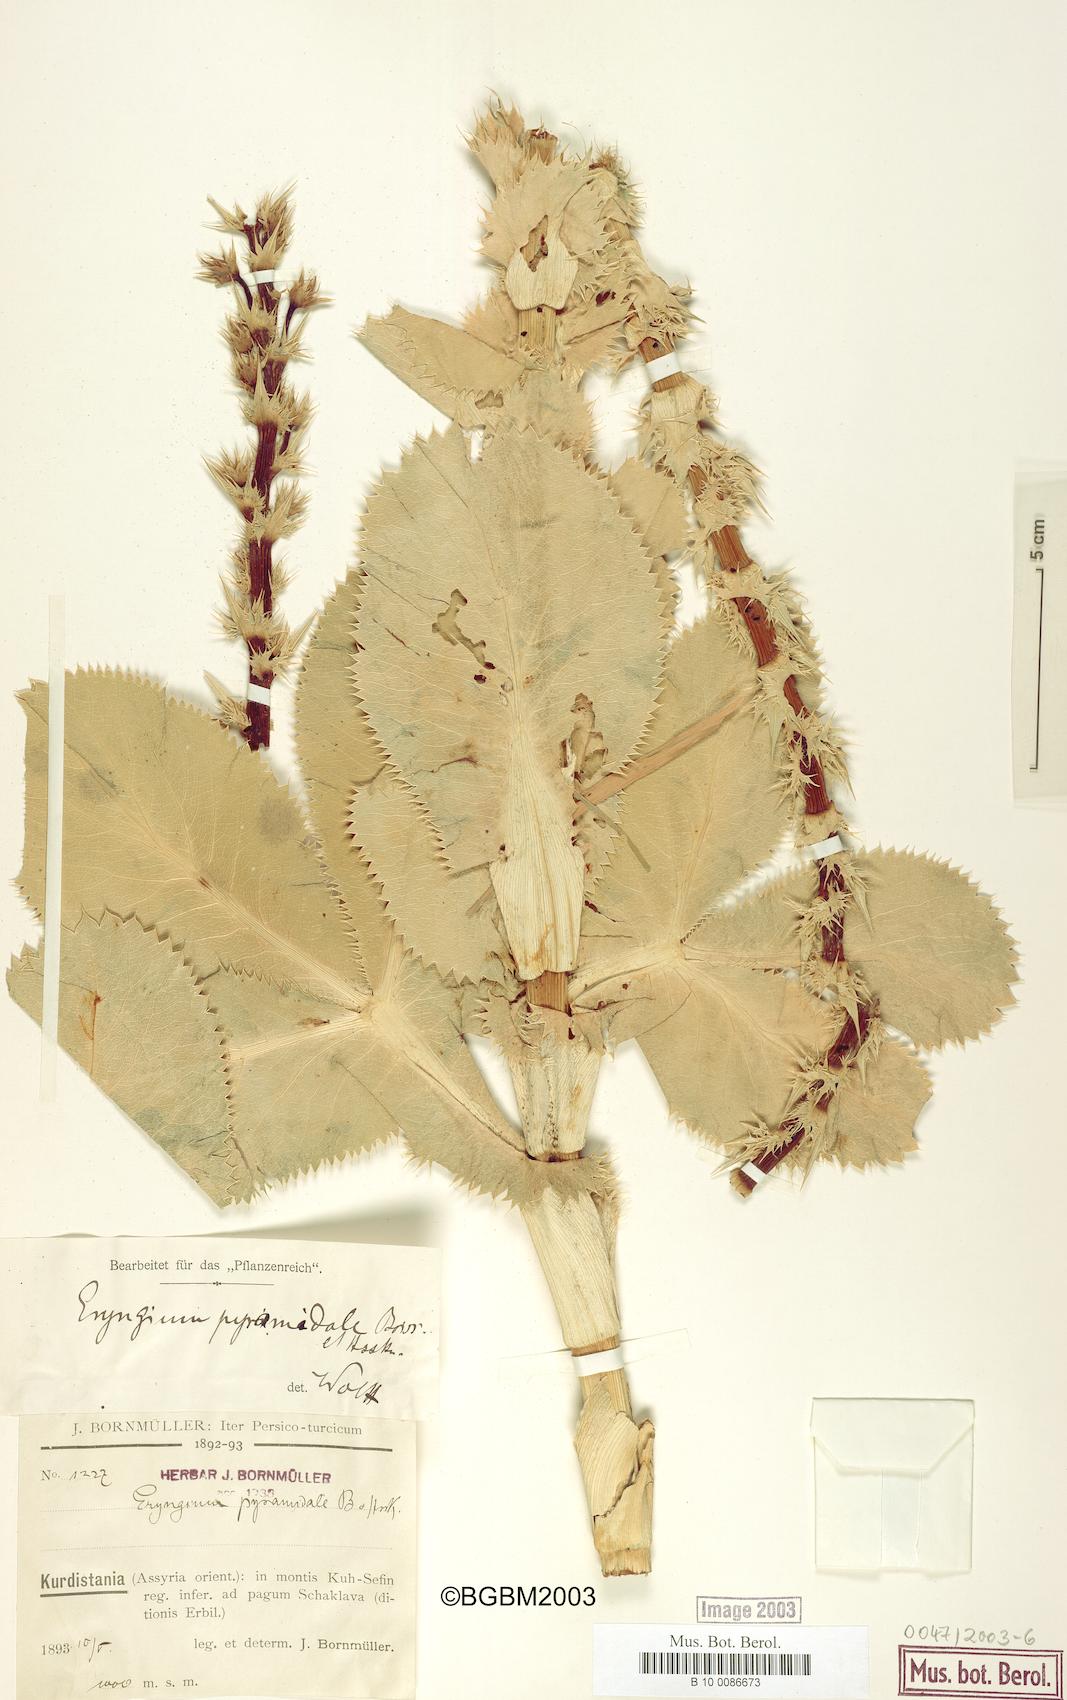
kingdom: Plantae
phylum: Tracheophyta
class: Magnoliopsida
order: Apiales
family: Apiaceae
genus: Eryngium
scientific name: Eryngium pyramidale
